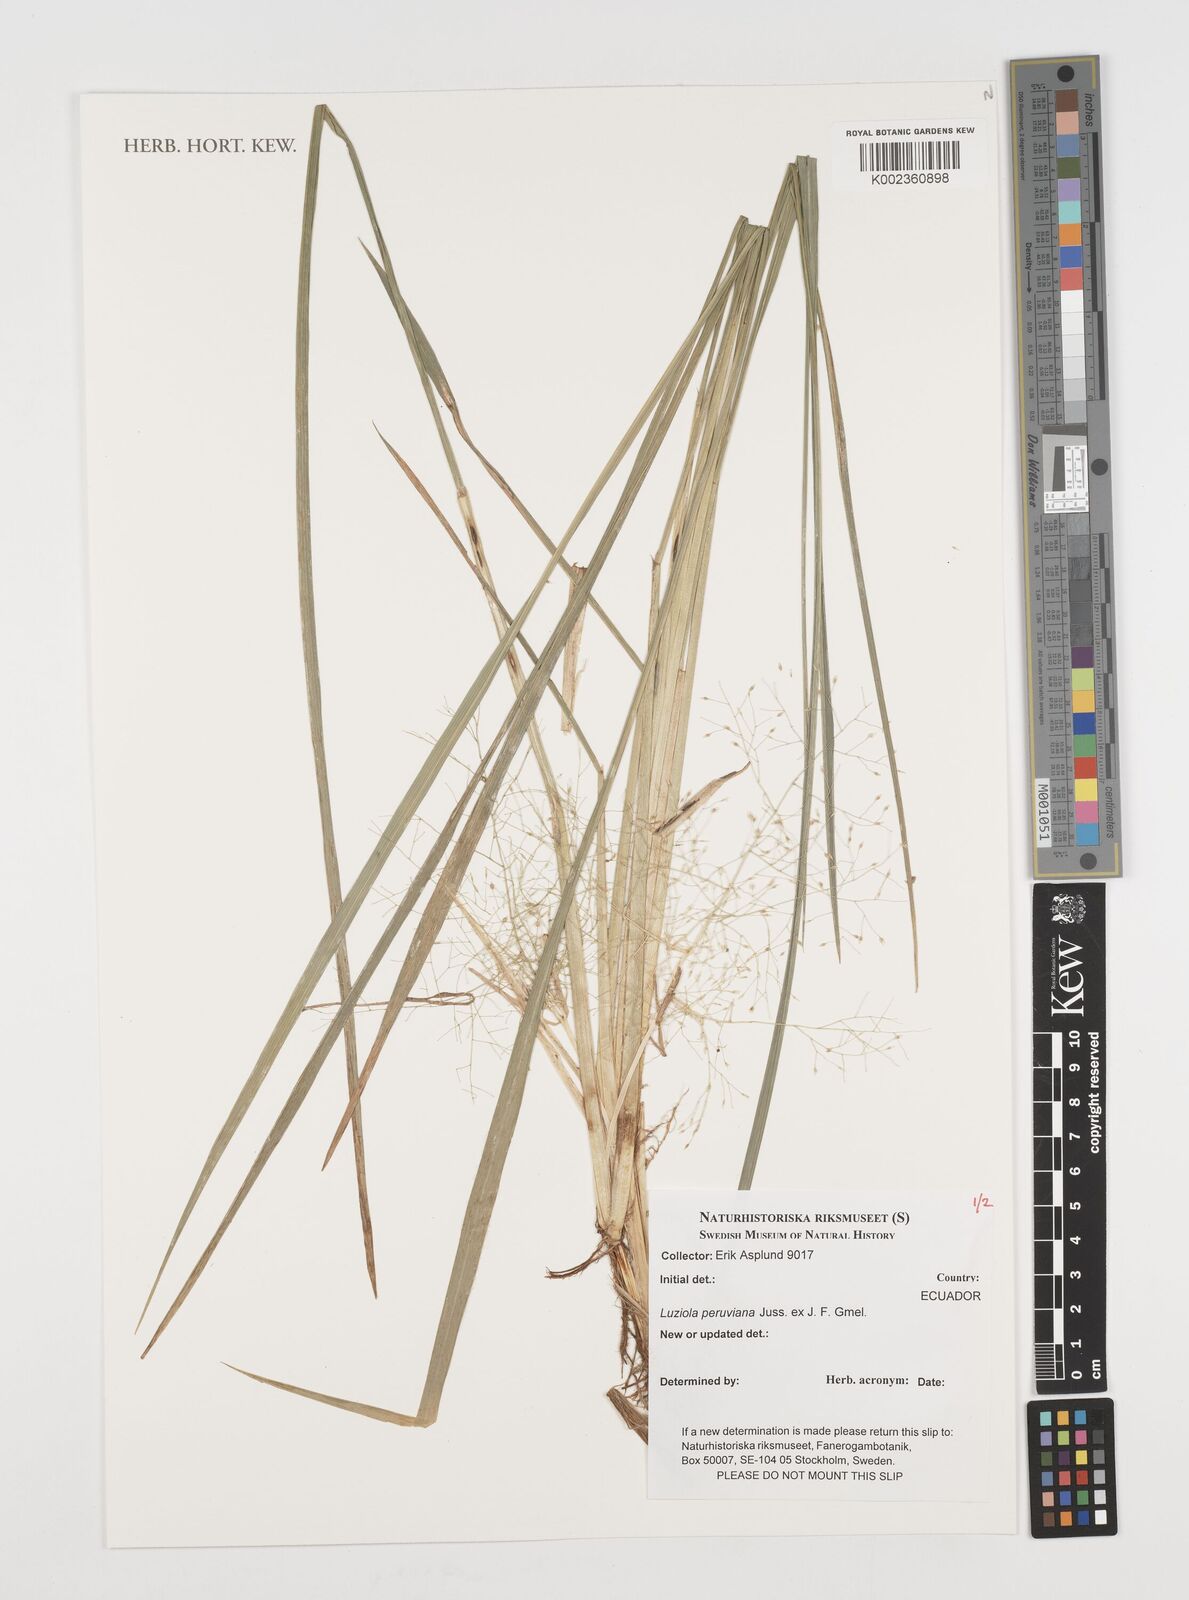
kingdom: Plantae
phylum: Tracheophyta
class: Liliopsida
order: Poales
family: Poaceae
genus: Luziola
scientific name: Luziola peruviana
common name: Peruvian watergrass
